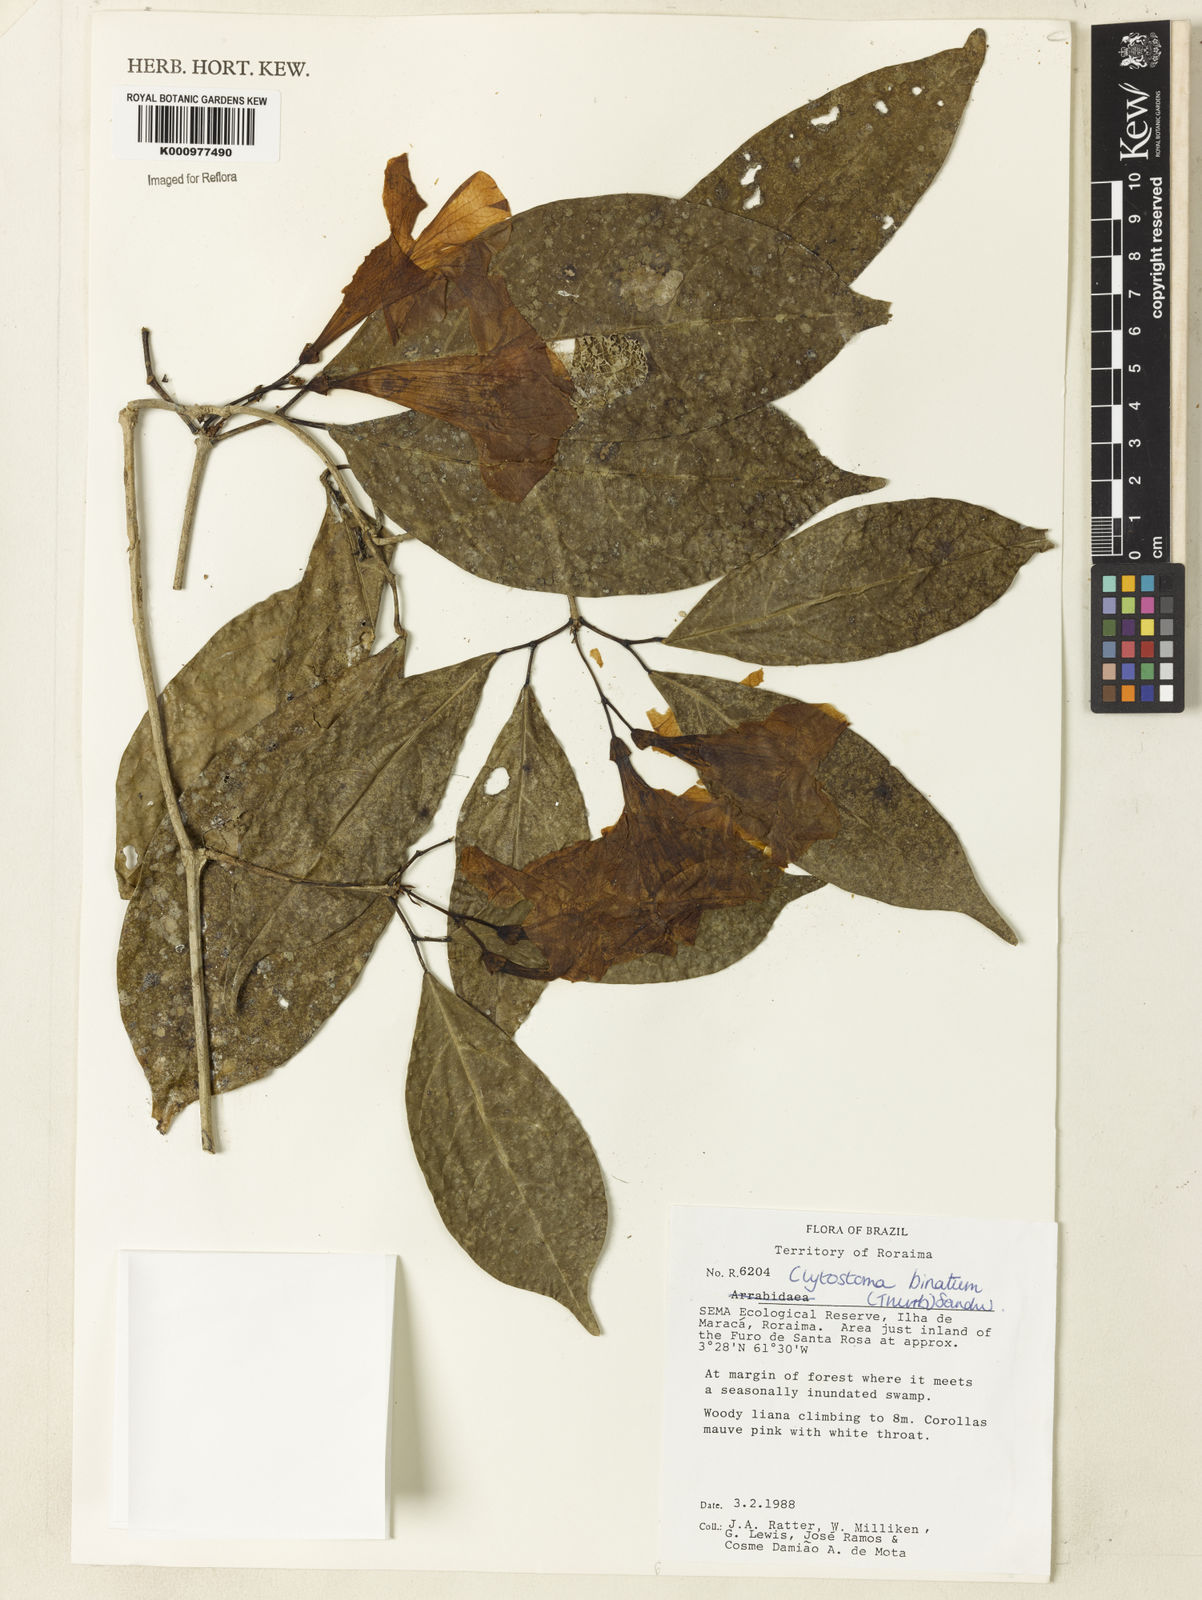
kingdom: Plantae
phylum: Tracheophyta
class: Magnoliopsida
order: Lamiales
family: Bignoniaceae
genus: Bignonia
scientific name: Bignonia binata
